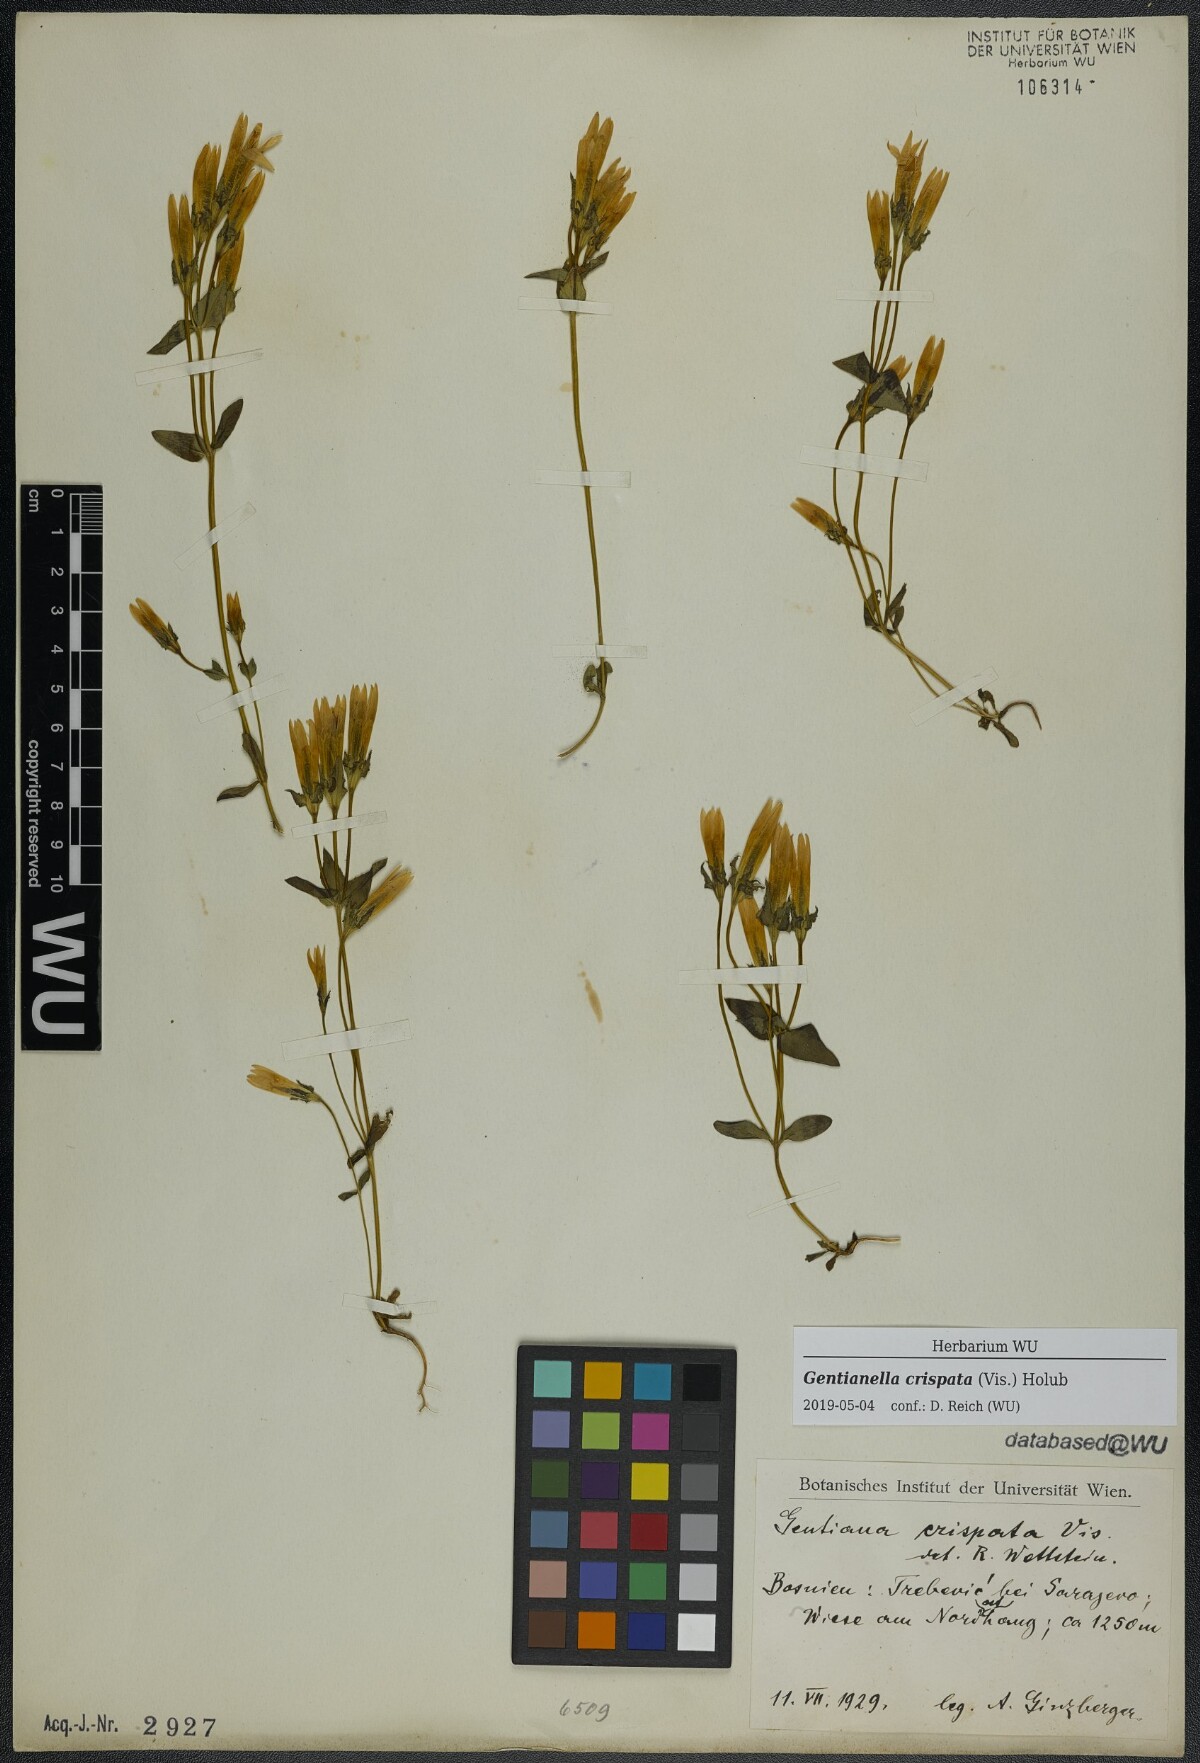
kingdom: Plantae
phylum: Tracheophyta
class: Magnoliopsida
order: Gentianales
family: Gentianaceae
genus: Gentianella
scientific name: Gentianella crispata
